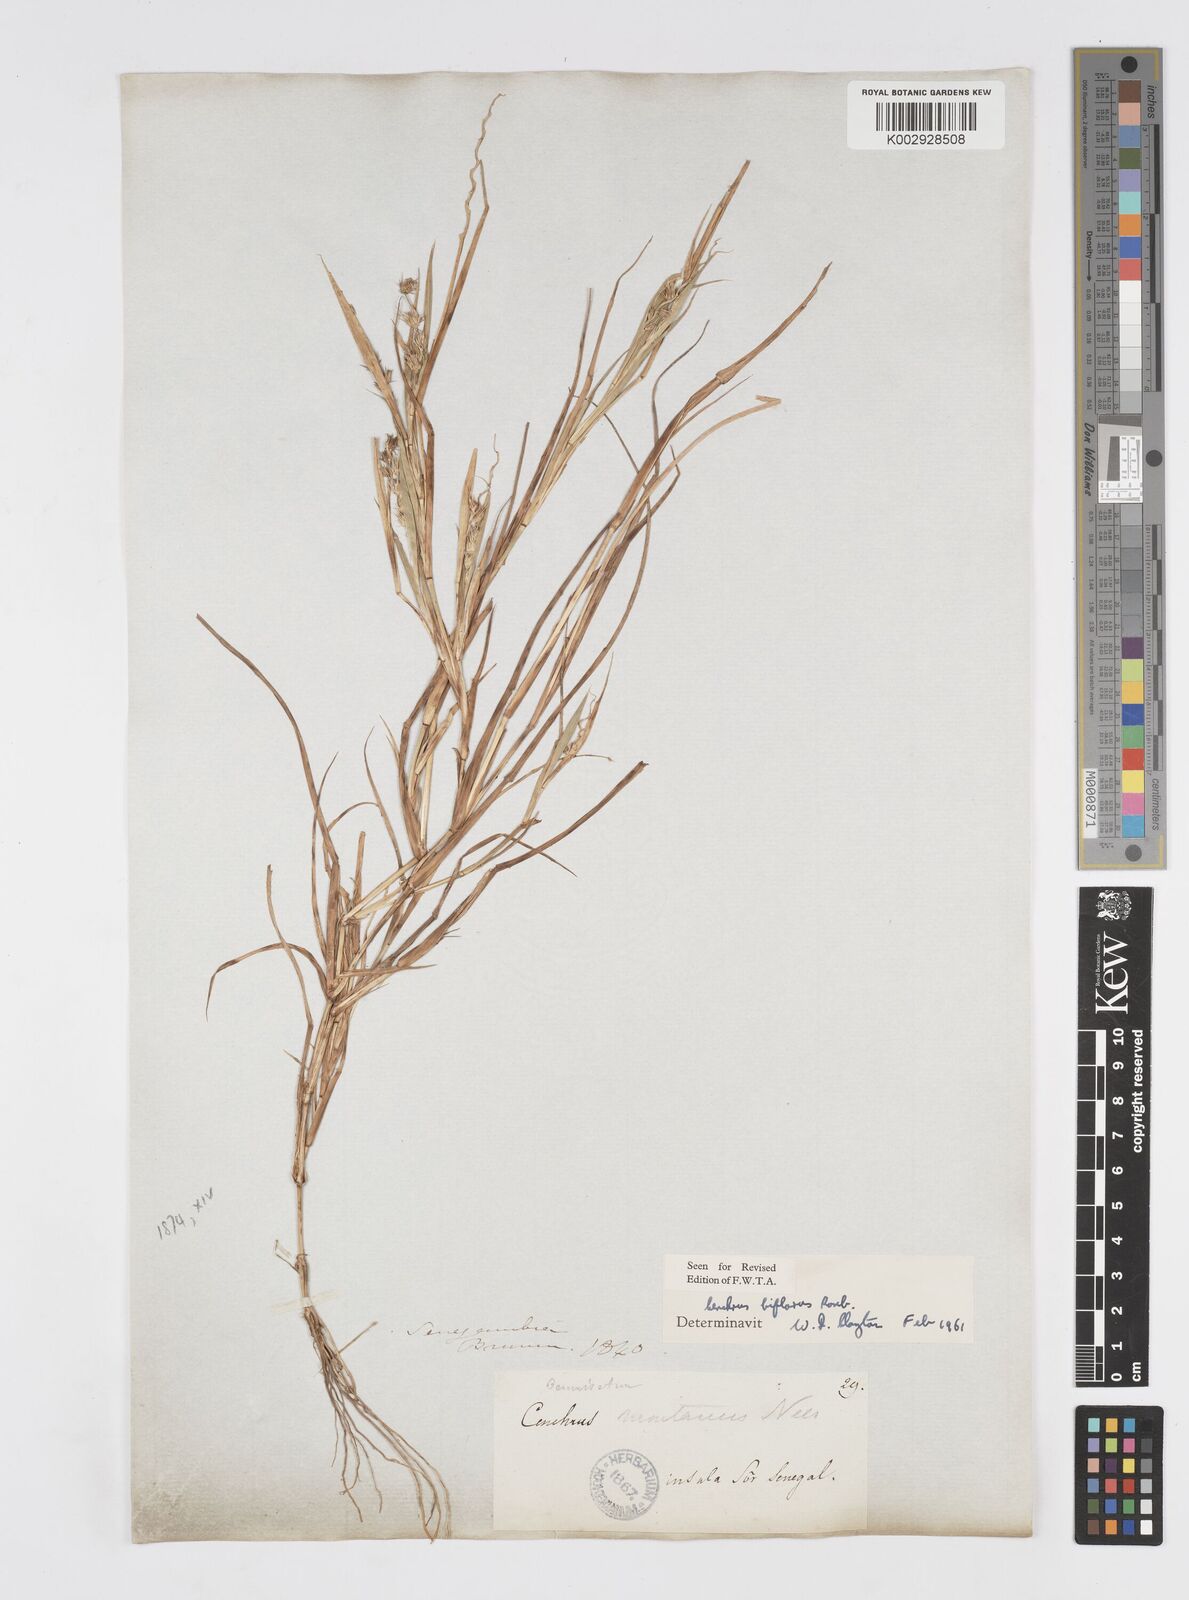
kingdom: Plantae
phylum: Tracheophyta
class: Liliopsida
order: Poales
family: Poaceae
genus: Cenchrus
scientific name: Cenchrus biflorus
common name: Indian sandbur
